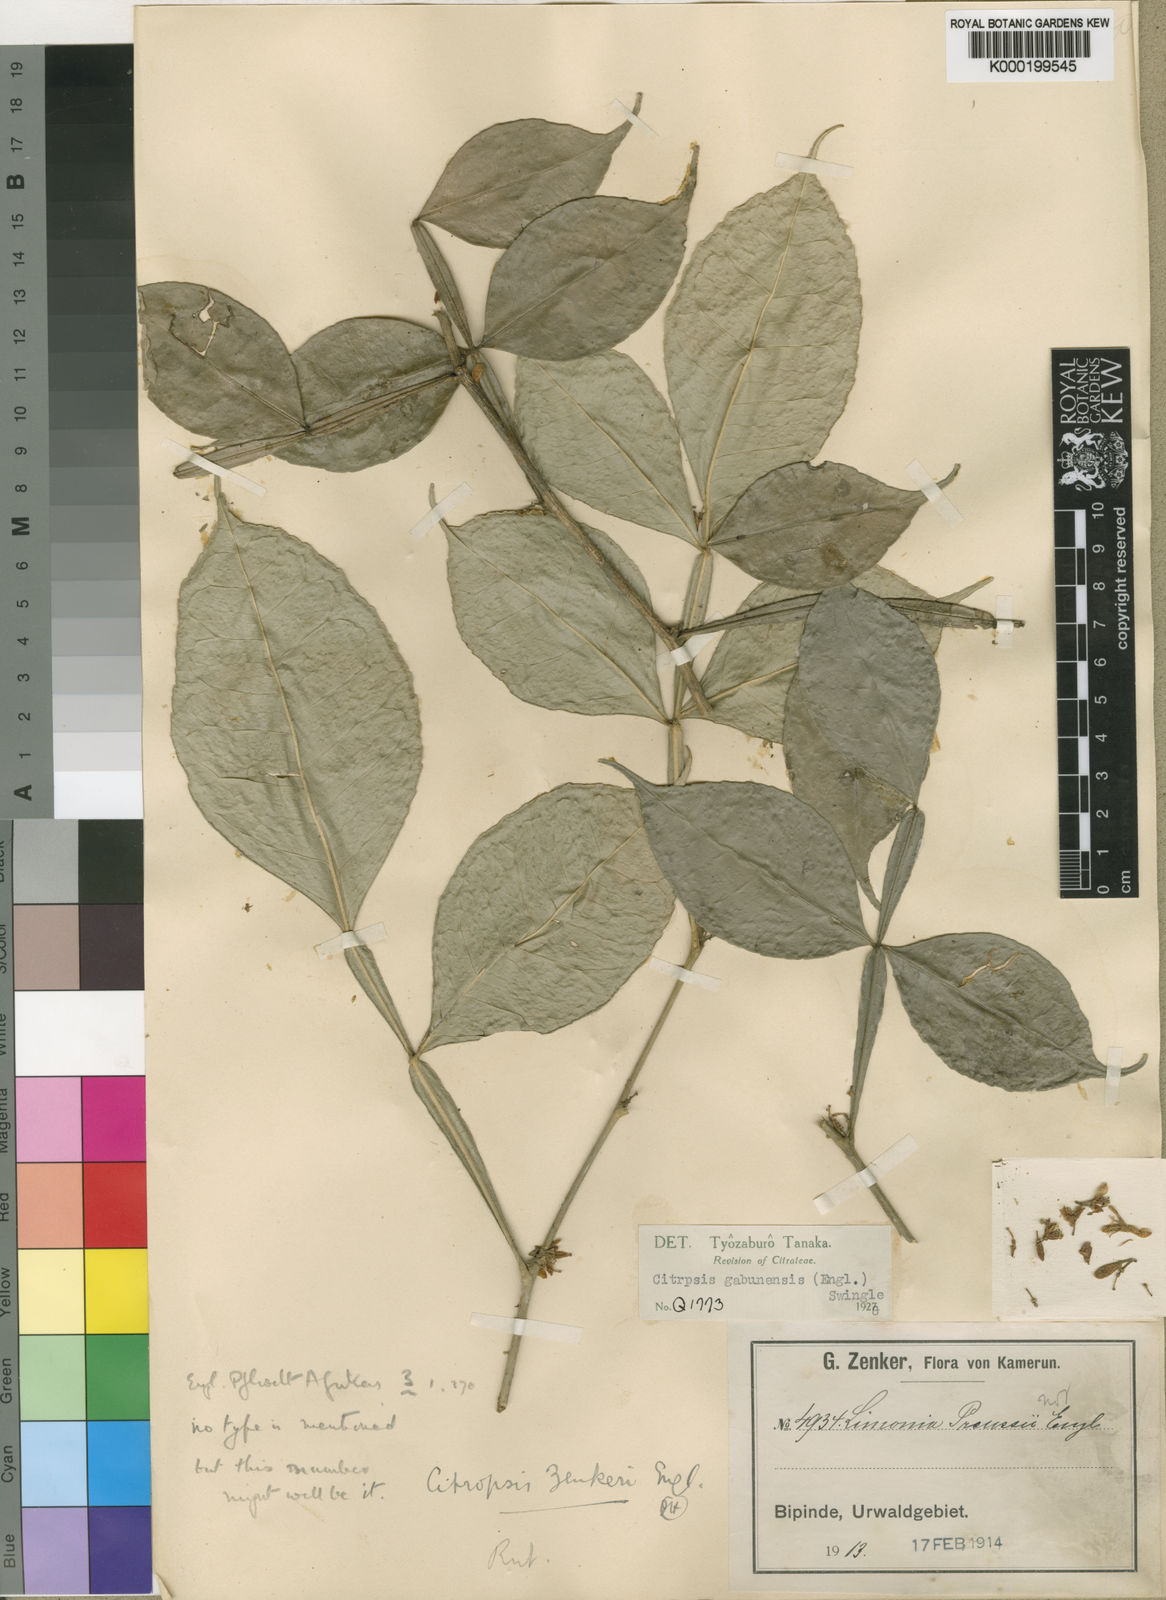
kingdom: Plantae
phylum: Tracheophyta
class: Magnoliopsida
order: Sapindales
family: Rutaceae
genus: Citropsis
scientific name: Citropsis gabunensis
